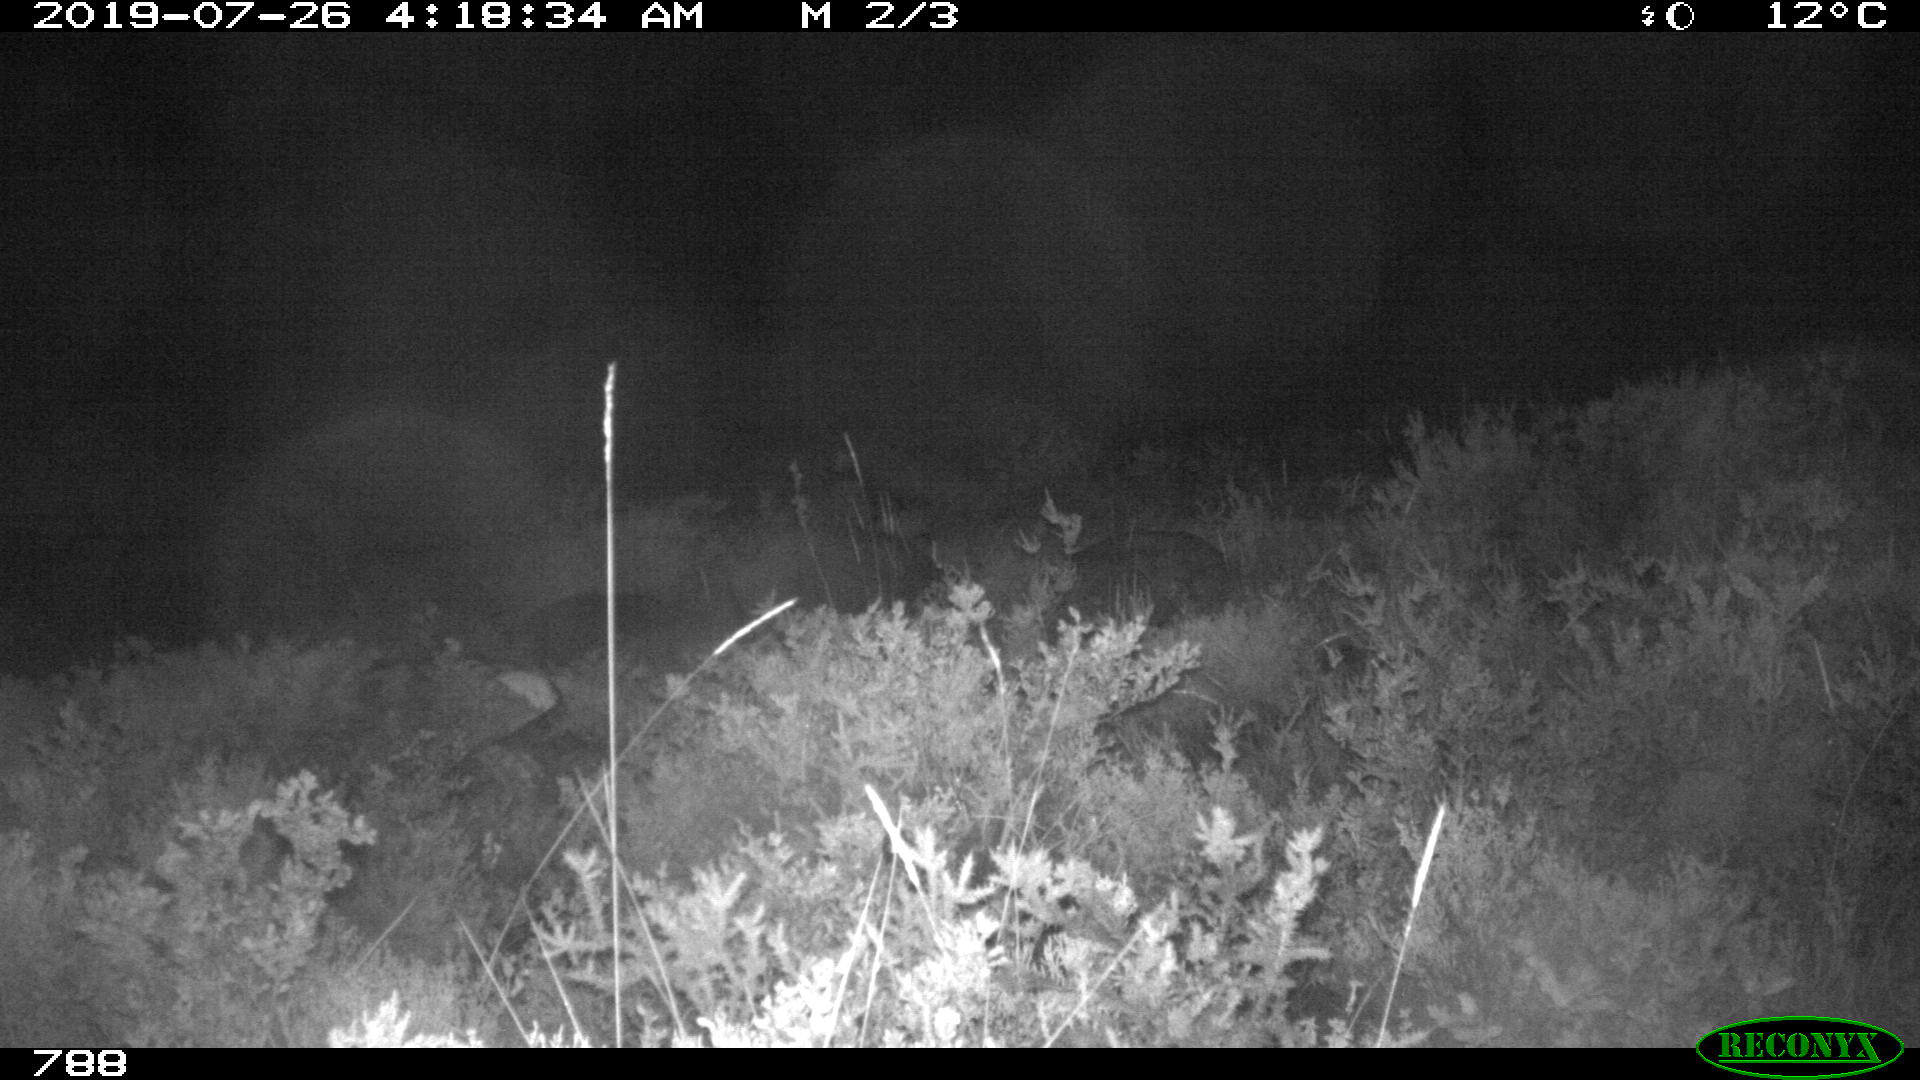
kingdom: Animalia
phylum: Chordata
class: Mammalia
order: Artiodactyla
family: Suidae
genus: Sus
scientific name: Sus scrofa
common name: Wild boar
